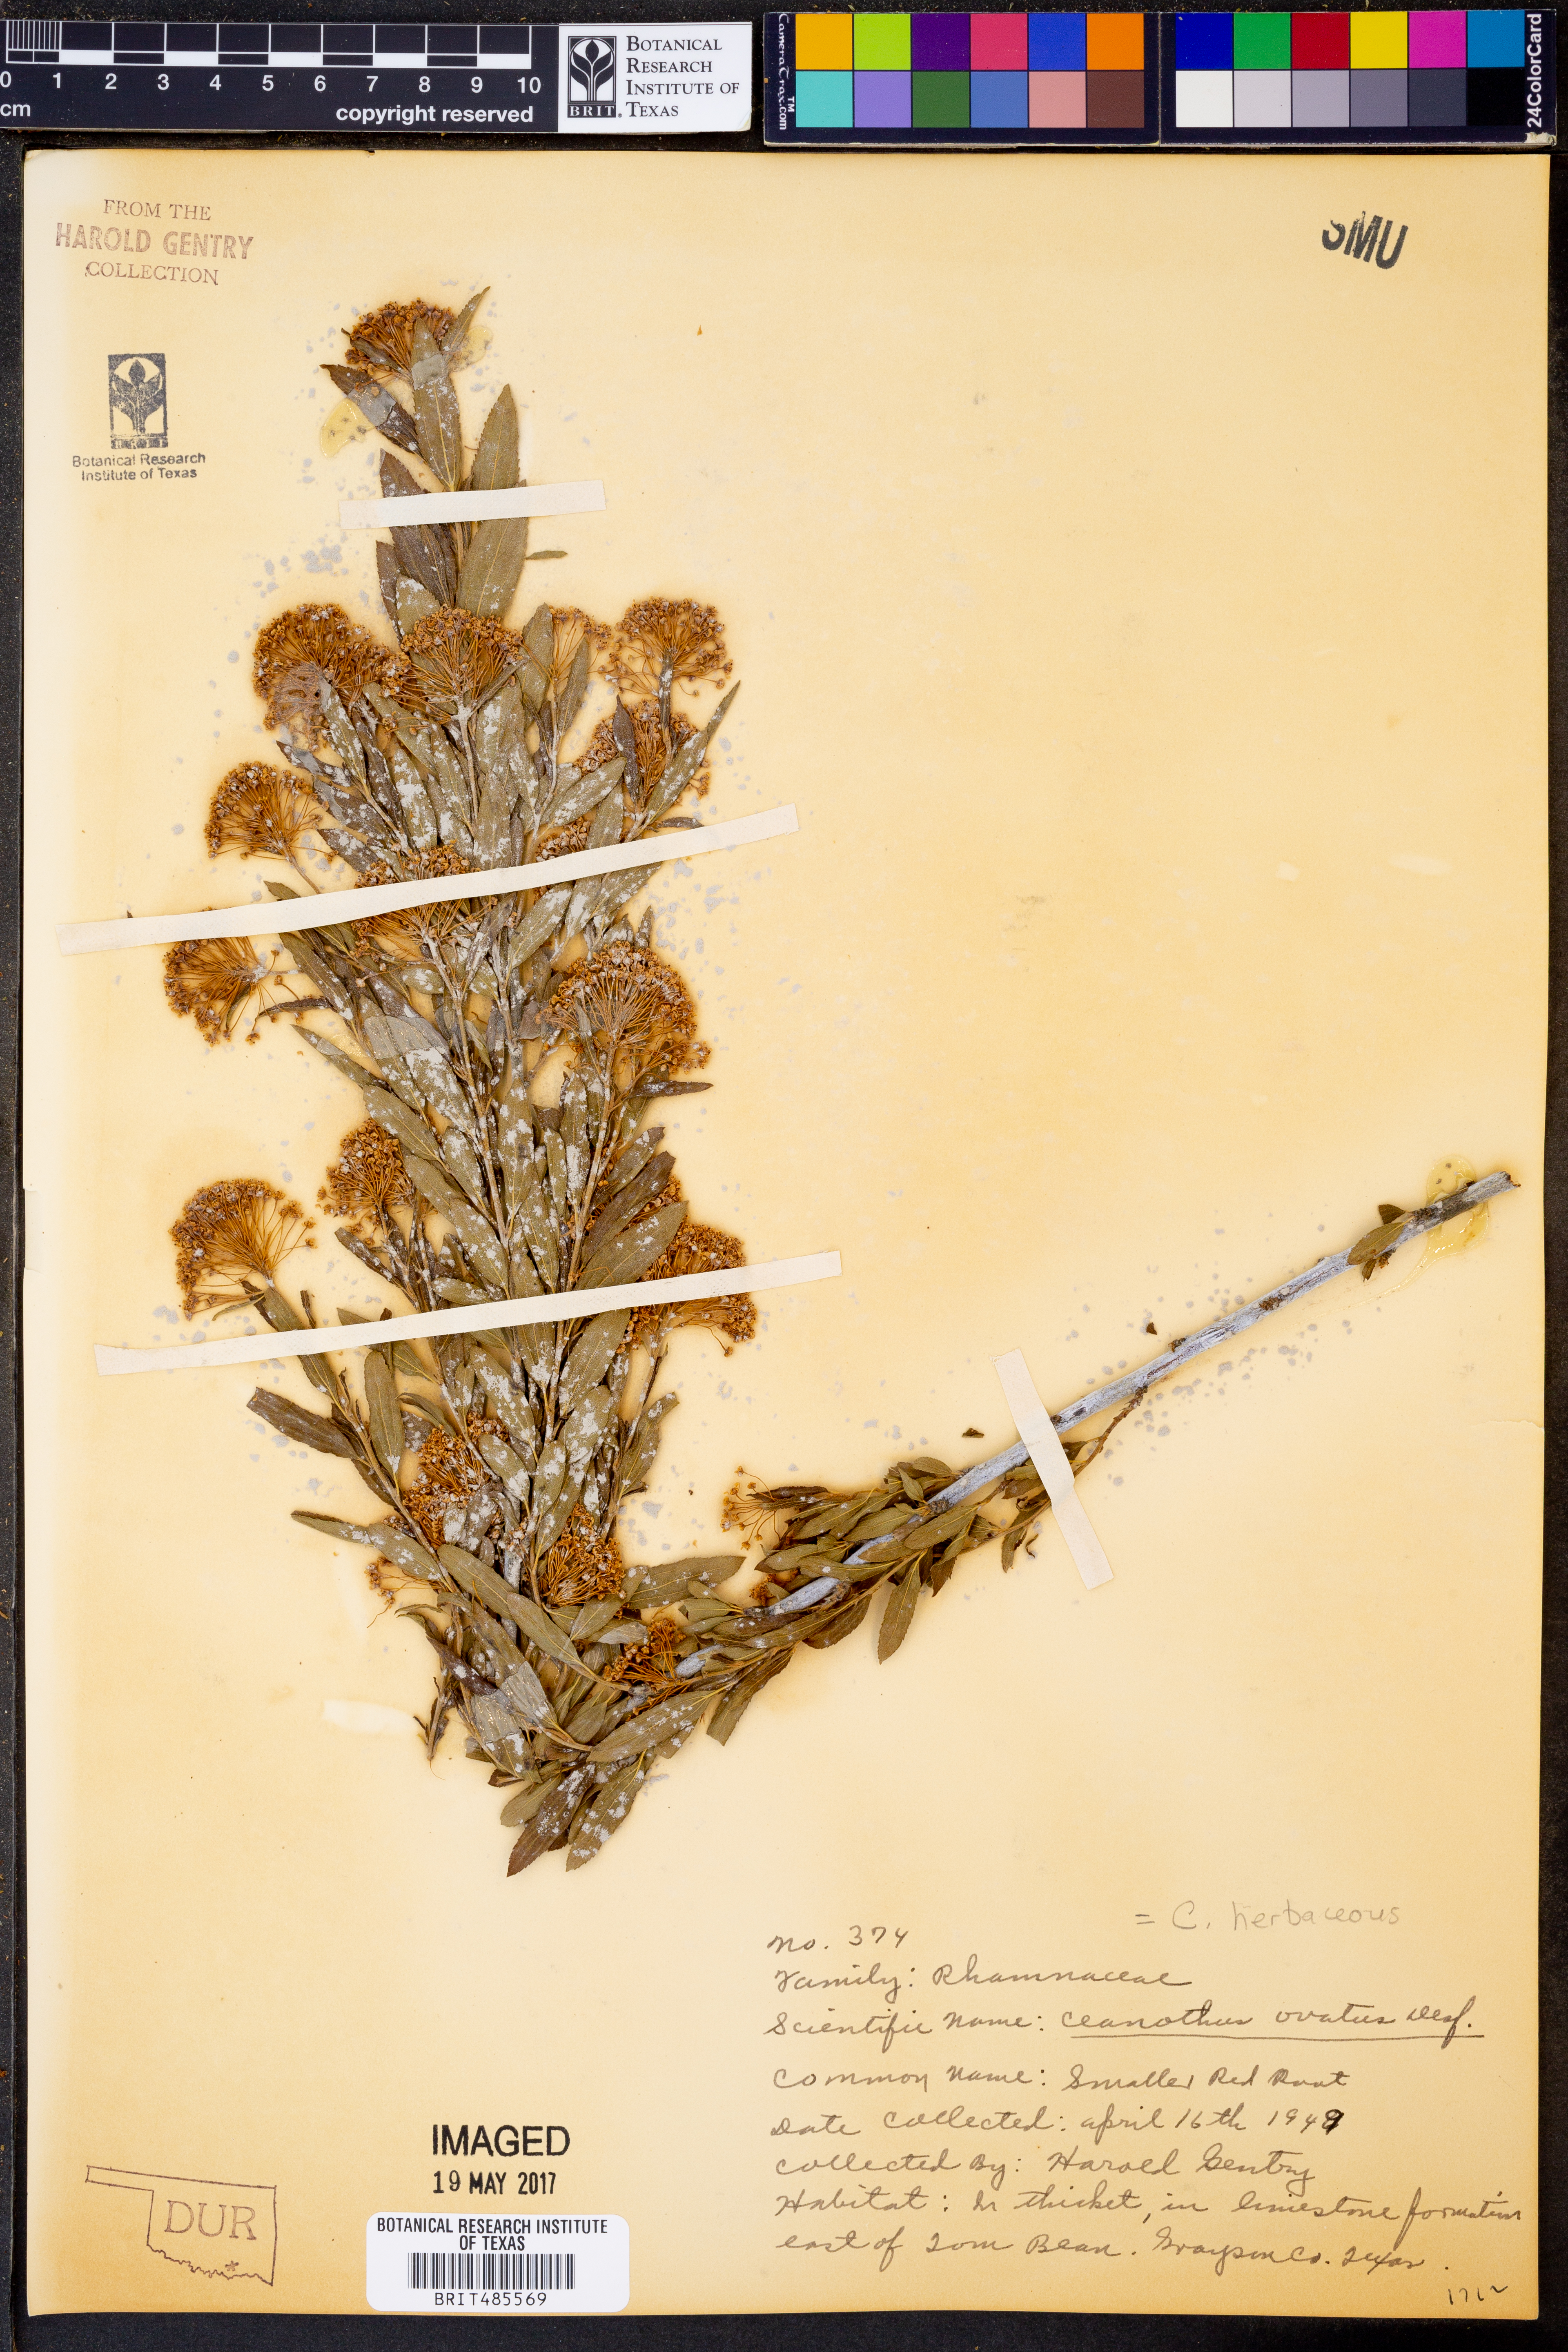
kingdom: Plantae
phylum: Tracheophyta
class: Magnoliopsida
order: Rosales
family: Rhamnaceae
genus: Ceanothus
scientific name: Ceanothus herbaceus
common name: Inland ceanothus
